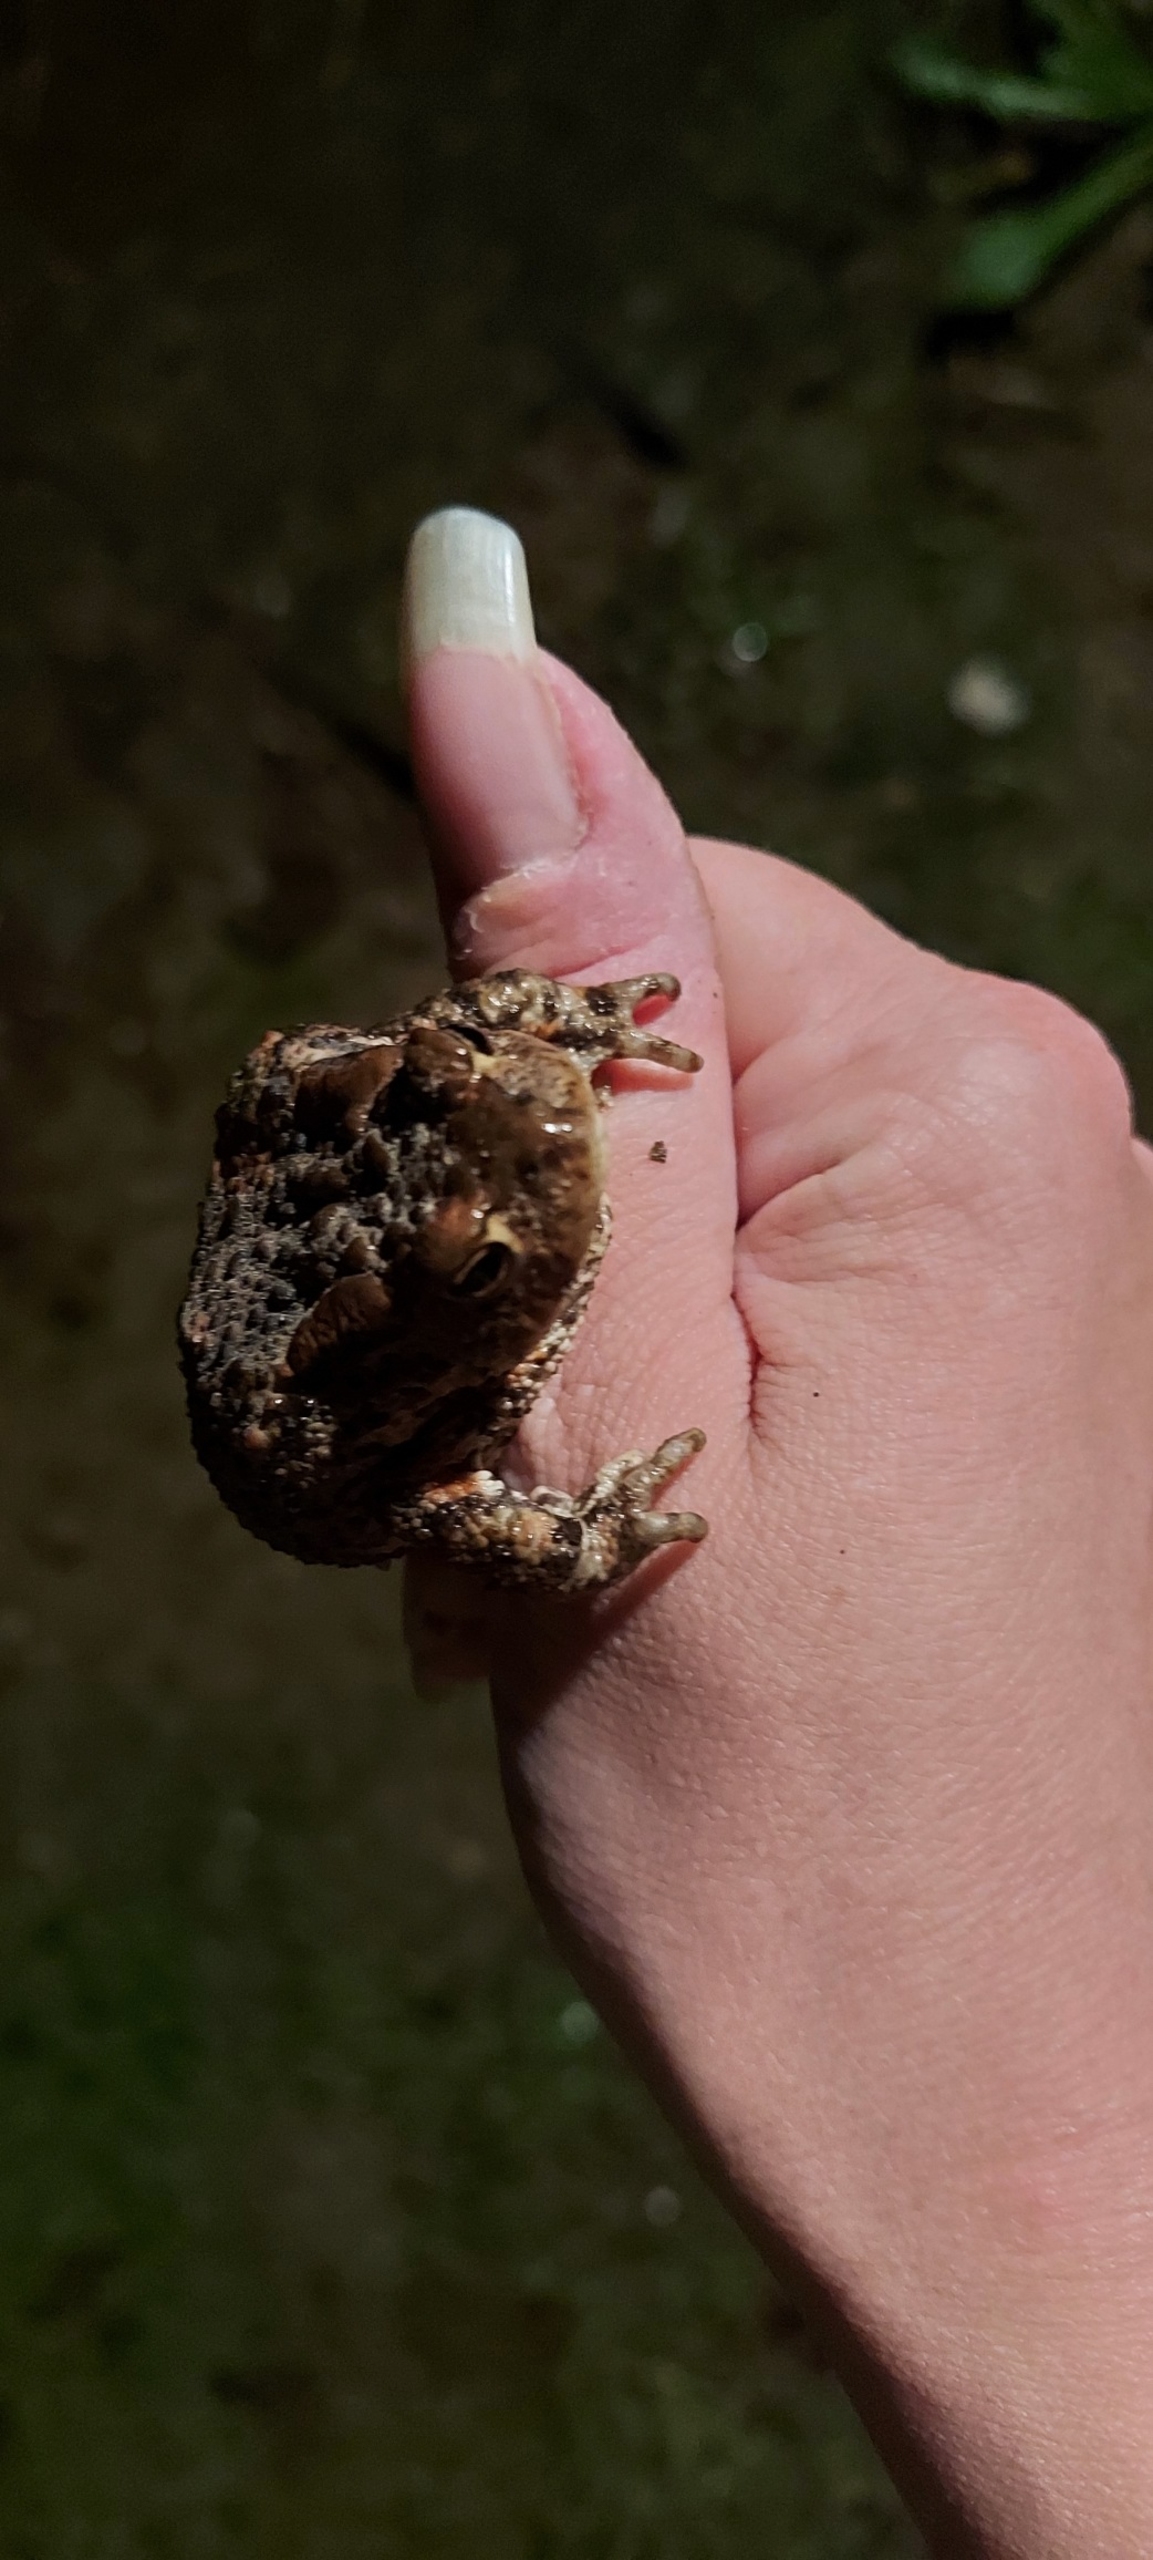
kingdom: Animalia
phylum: Chordata
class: Amphibia
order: Anura
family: Bufonidae
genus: Bufo
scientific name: Bufo bufo
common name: Skrubtudse
